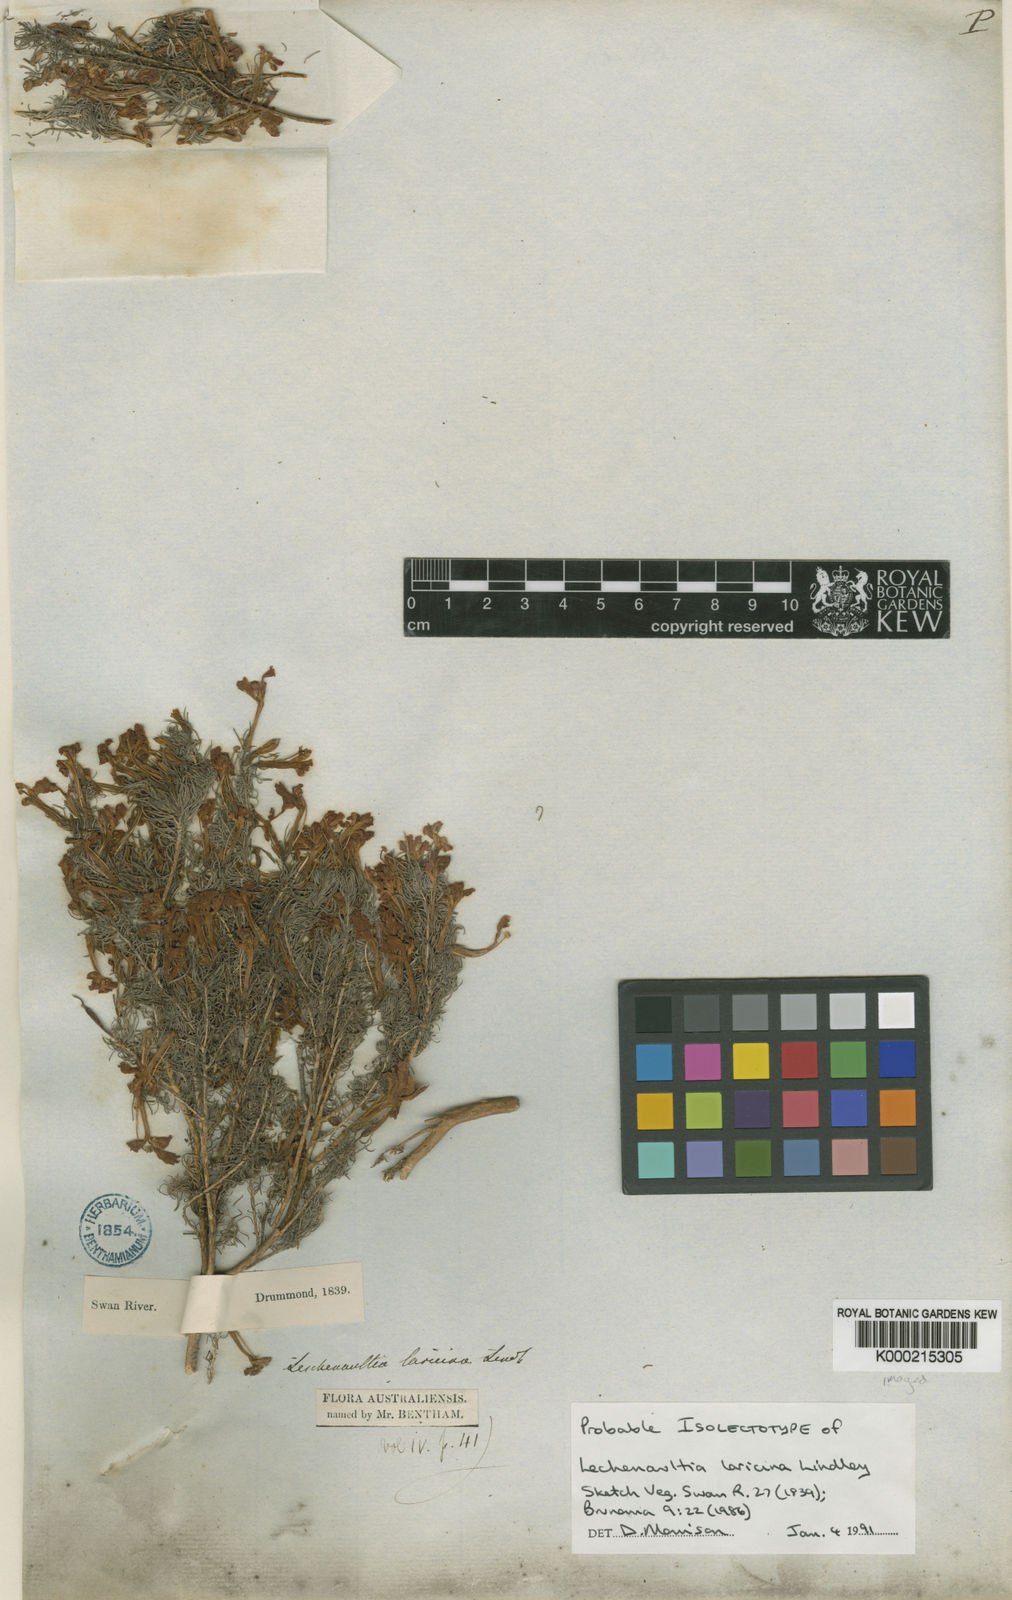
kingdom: Plantae
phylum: Tracheophyta
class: Magnoliopsida
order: Asterales
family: Goodeniaceae
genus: Leschenaultia
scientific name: Leschenaultia
